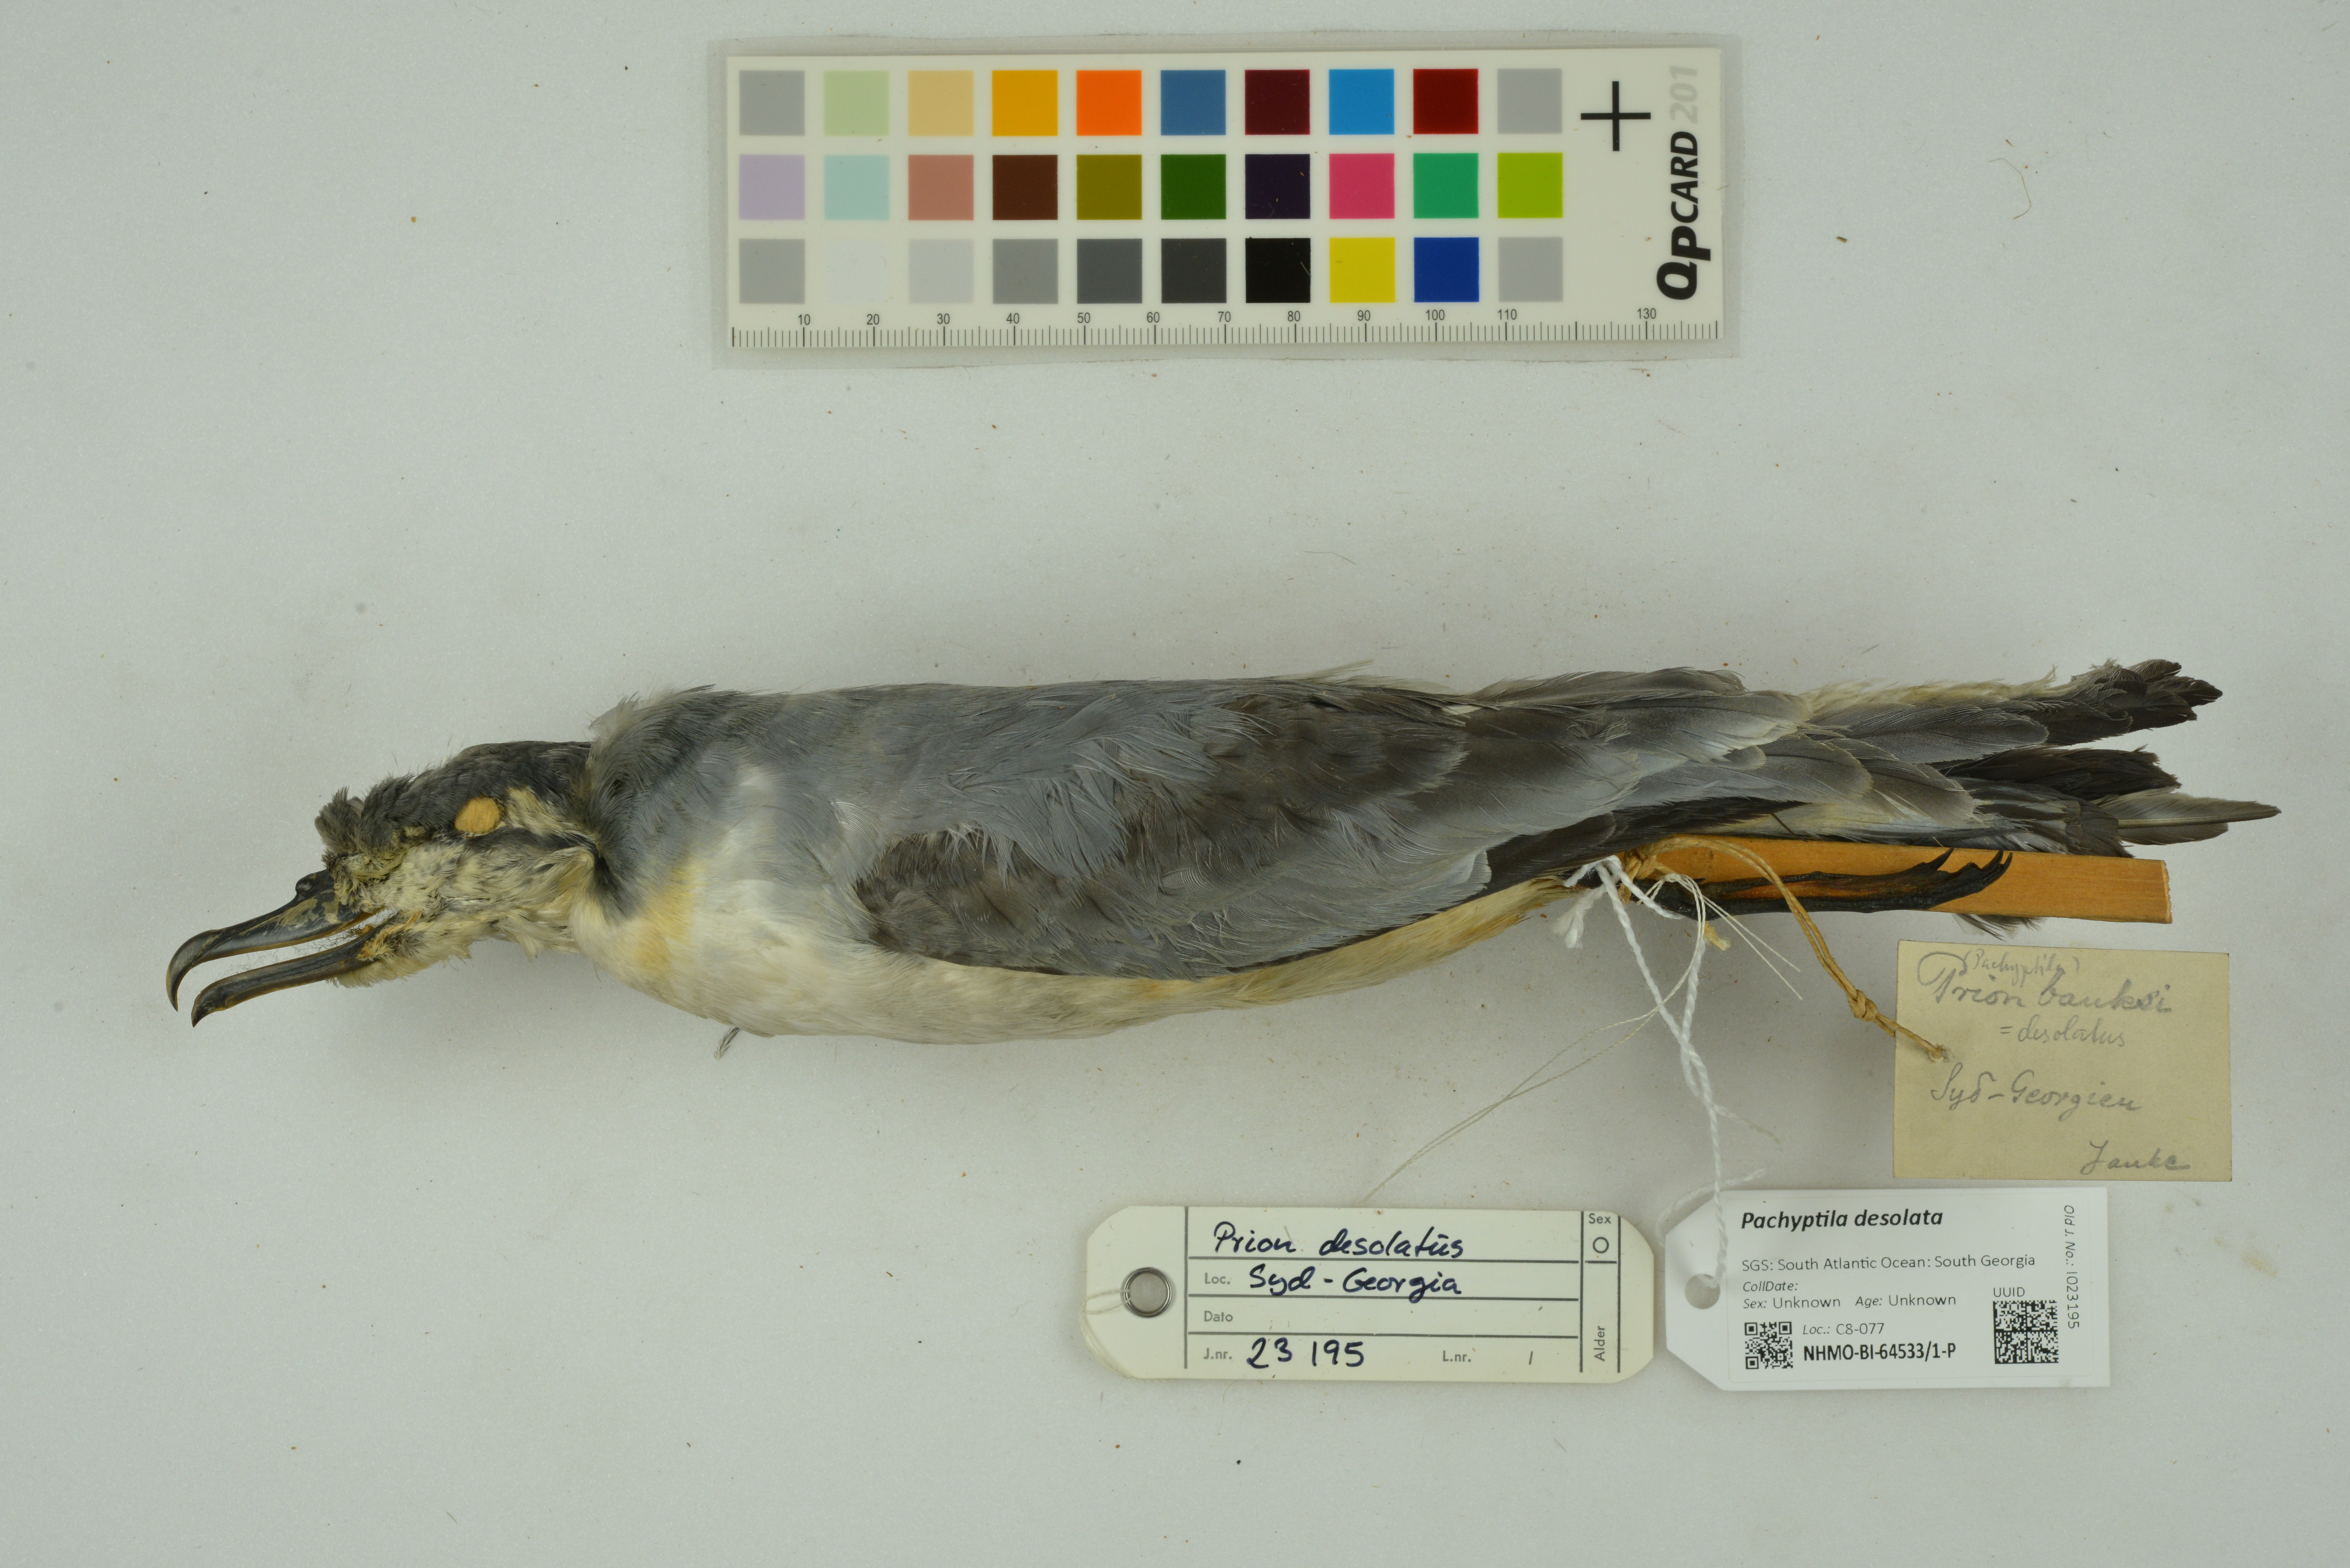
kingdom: Animalia
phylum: Chordata
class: Aves
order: Procellariiformes
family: Procellariidae
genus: Pachyptila
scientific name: Pachyptila desolata
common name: Antarctic prion
